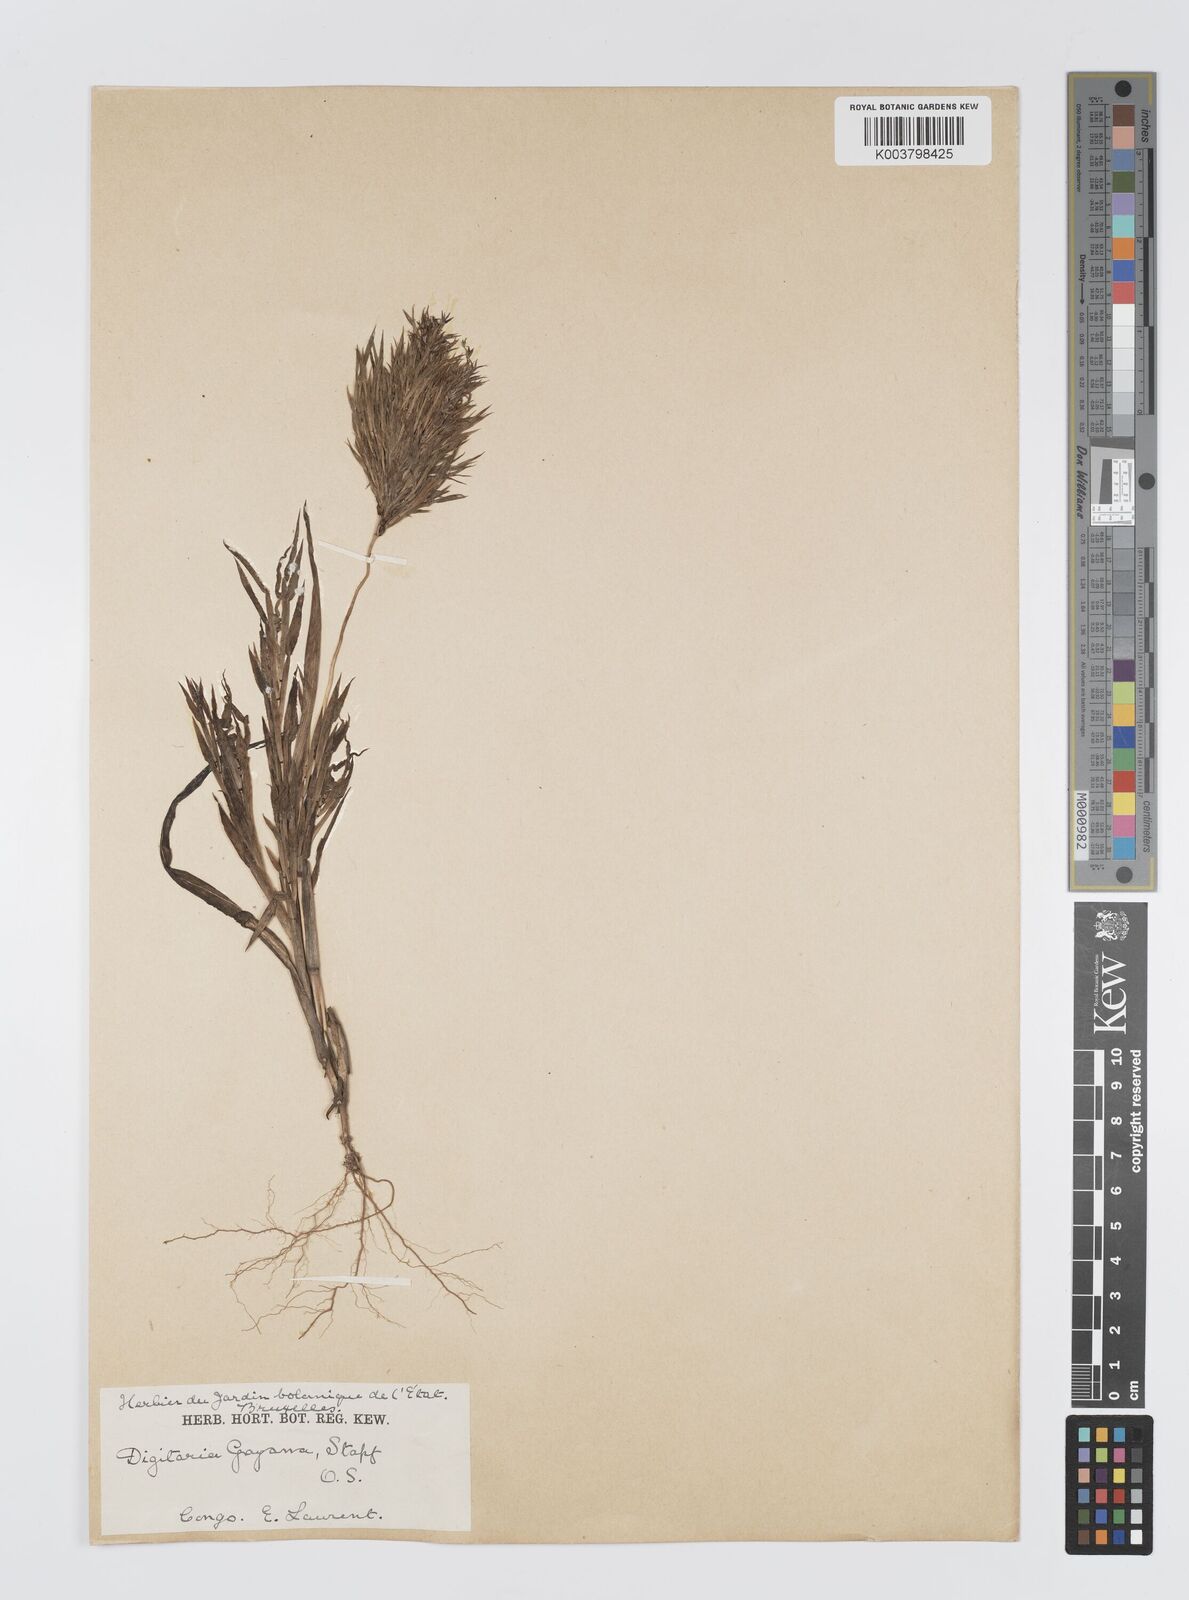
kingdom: Plantae
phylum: Tracheophyta
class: Liliopsida
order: Poales
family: Poaceae
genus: Digitaria
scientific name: Digitaria gayana
